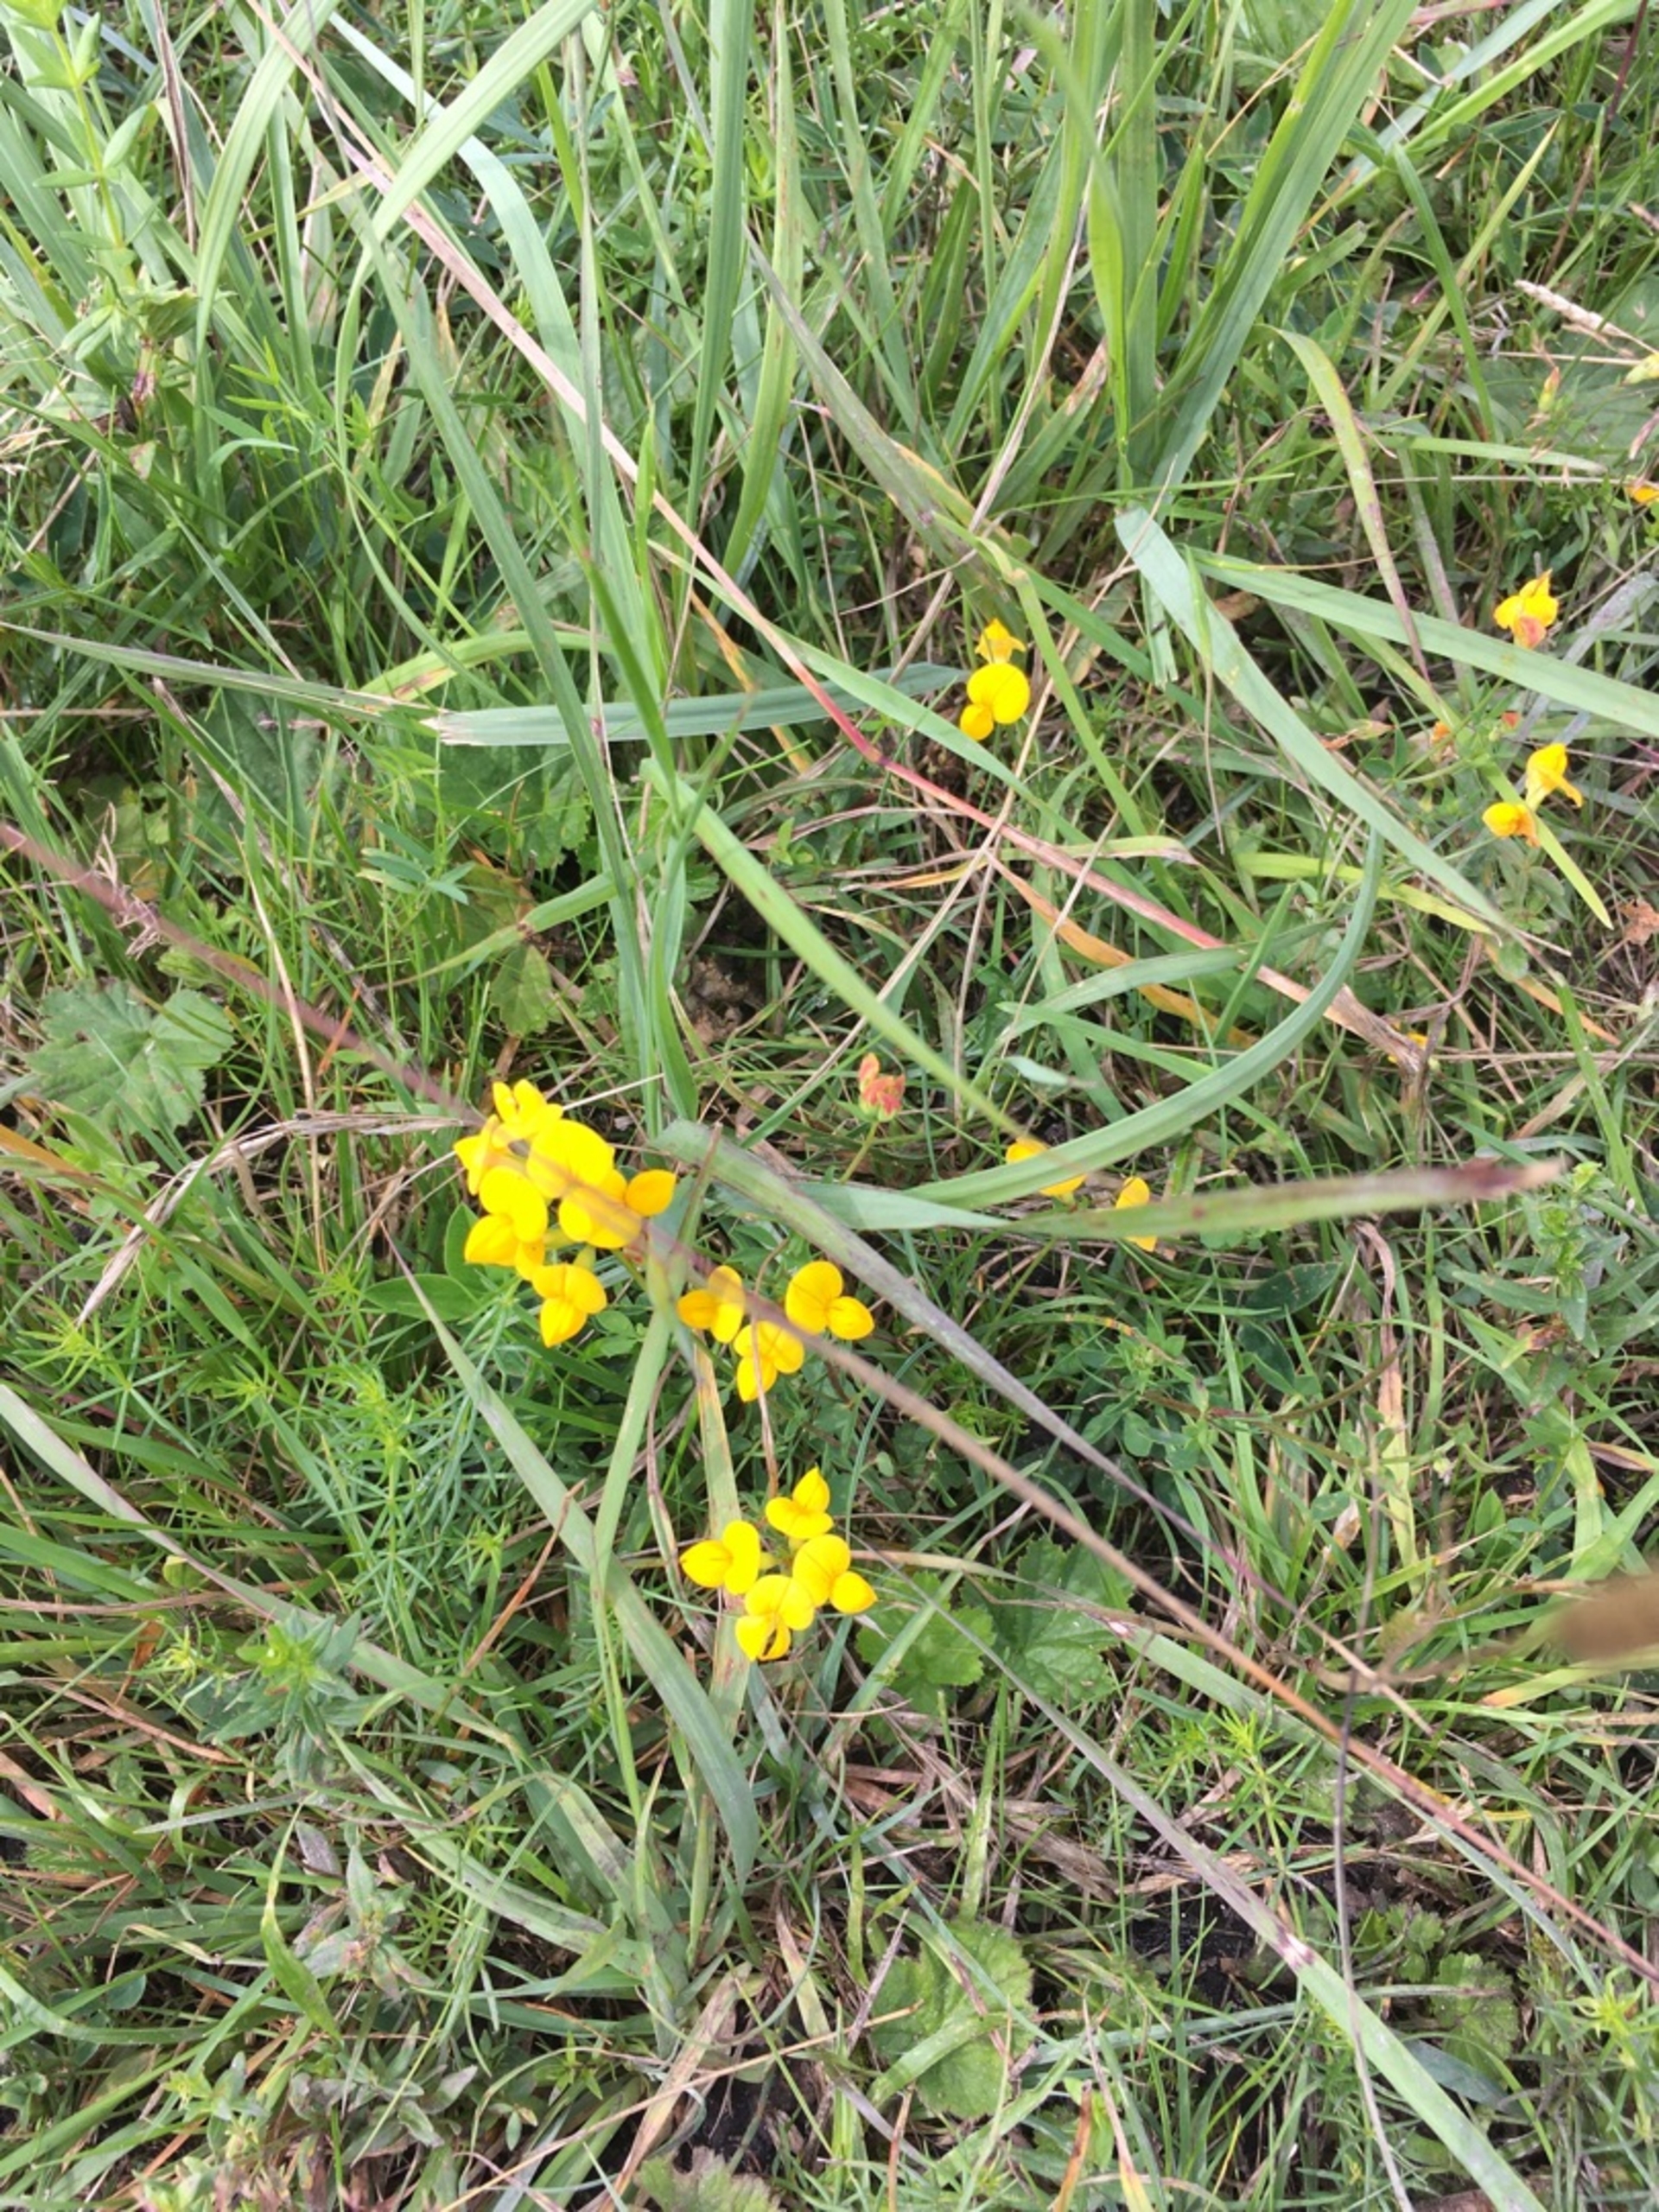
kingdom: Plantae
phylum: Tracheophyta
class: Magnoliopsida
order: Fabales
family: Fabaceae
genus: Lotus
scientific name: Lotus corniculatus
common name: Almindelig kællingetand
